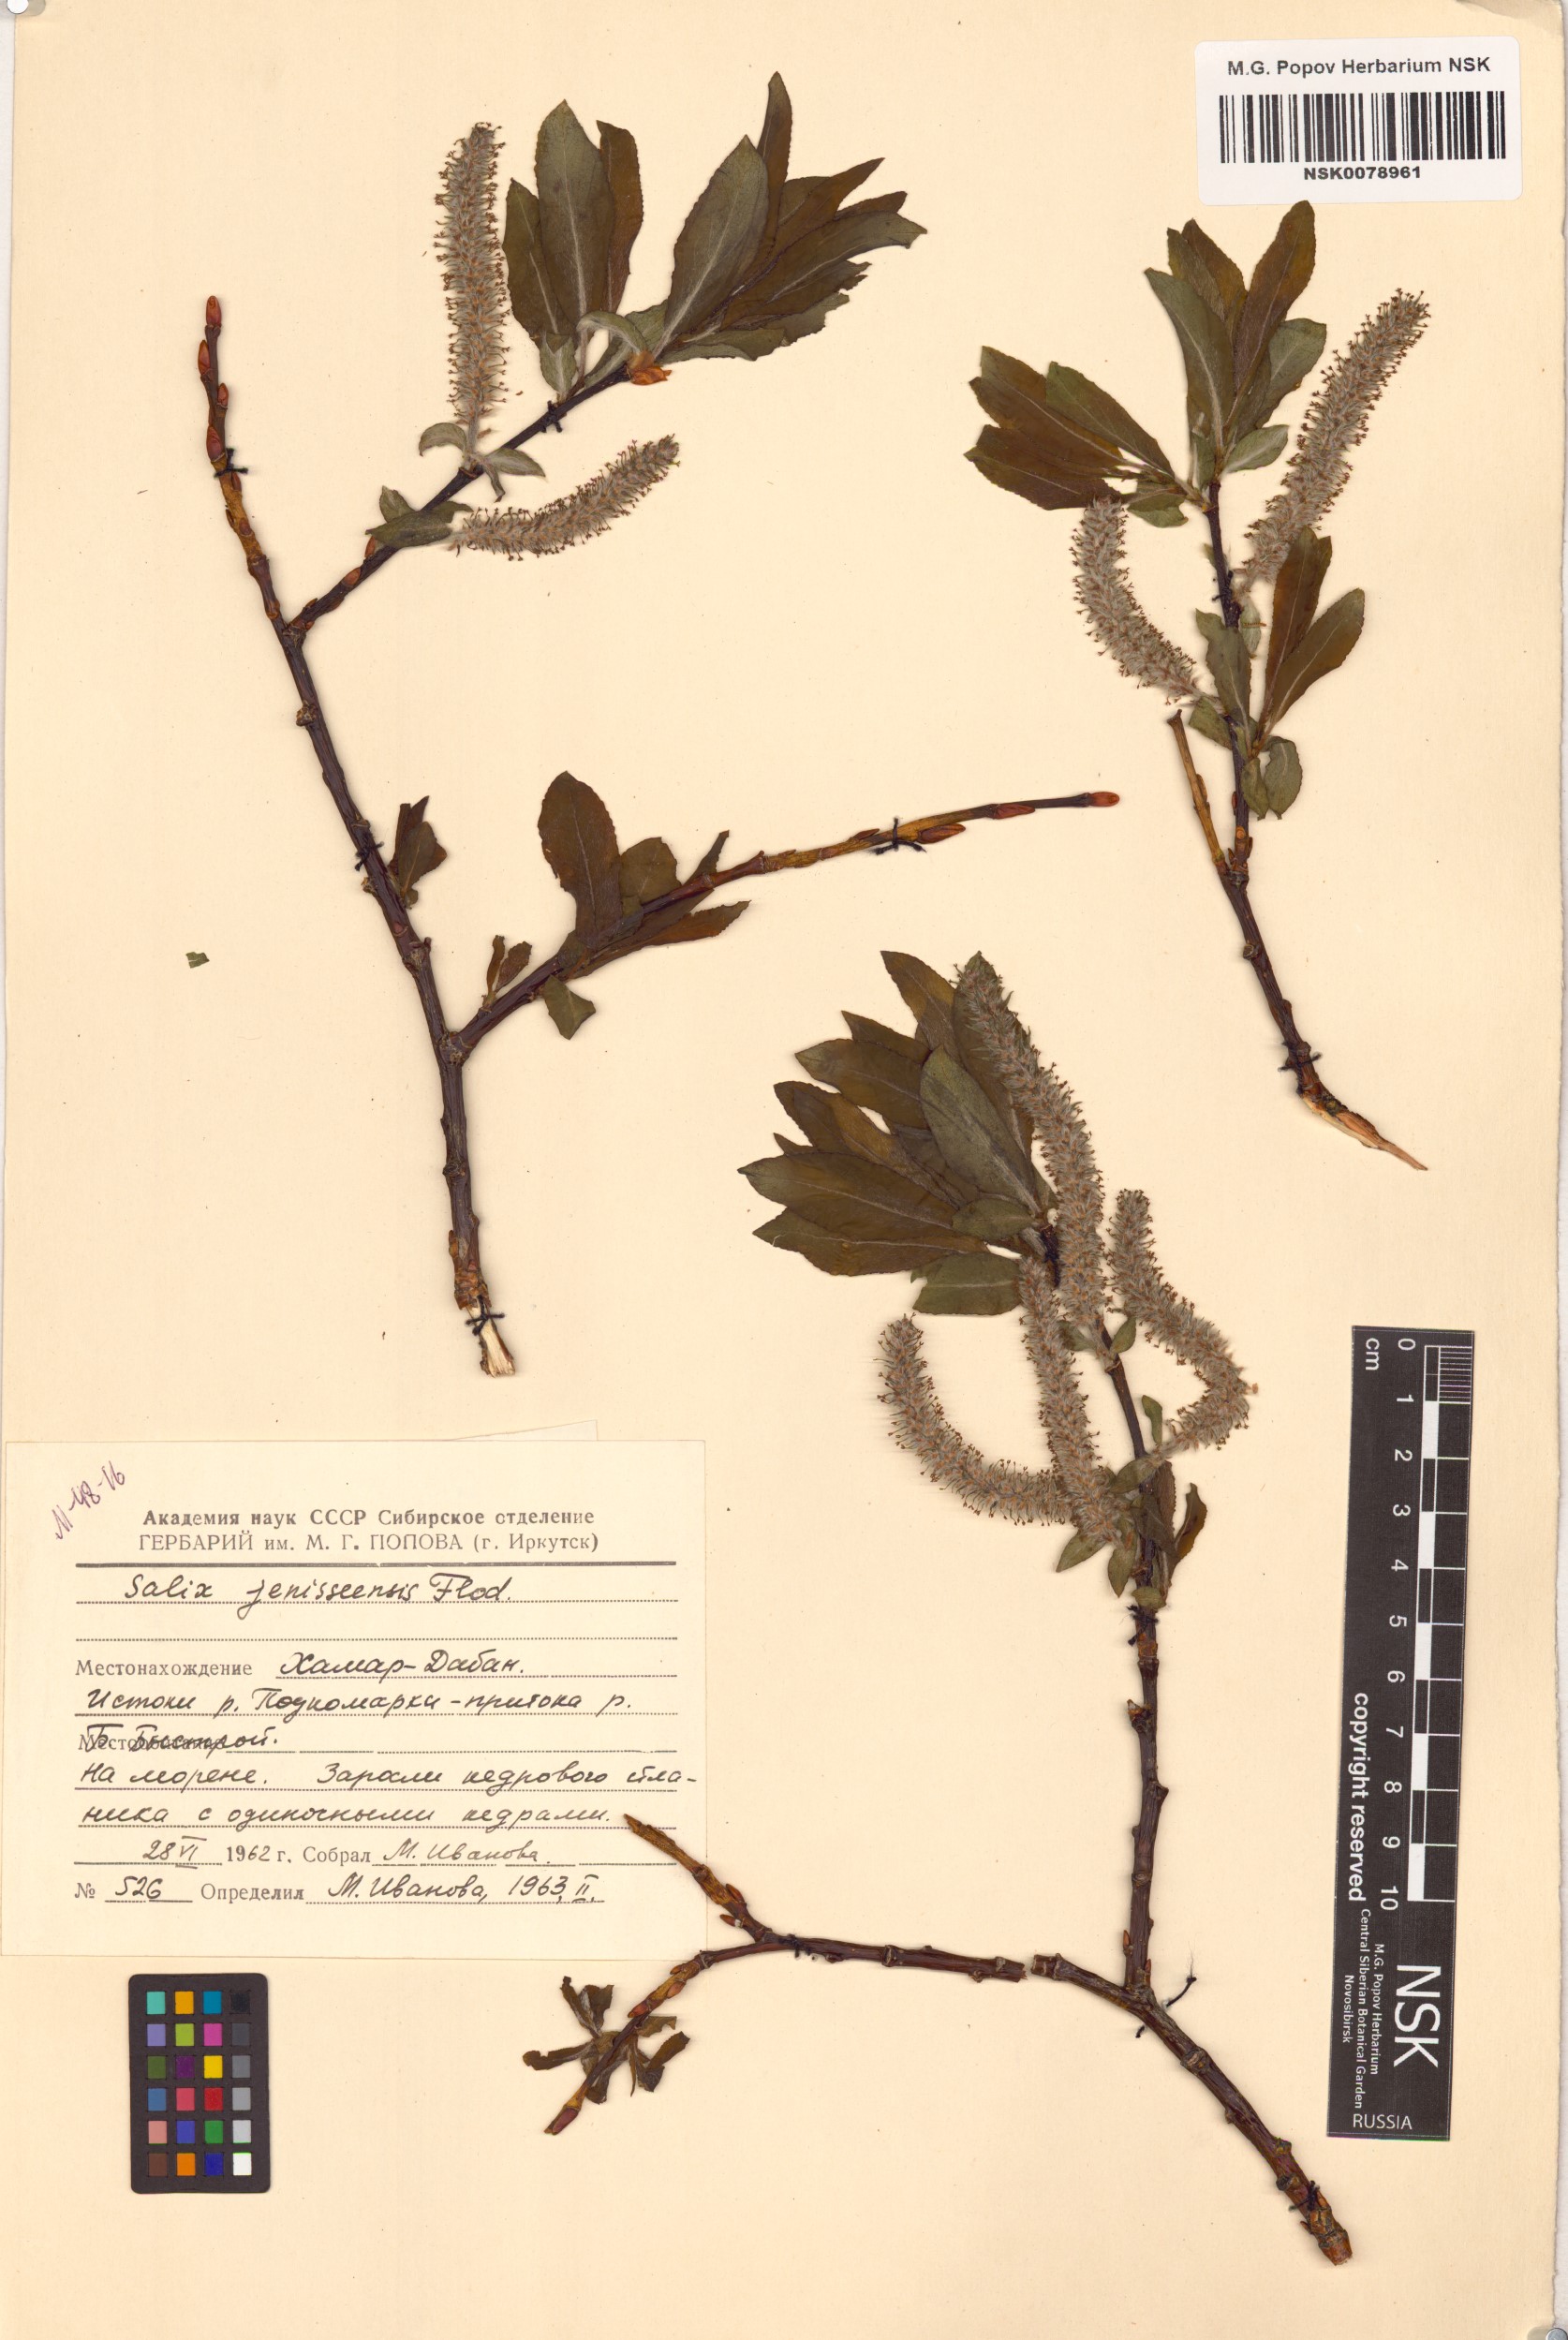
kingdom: Plantae
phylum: Tracheophyta
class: Magnoliopsida
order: Malpighiales
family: Salicaceae
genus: Salix
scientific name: Salix jenisseensis
